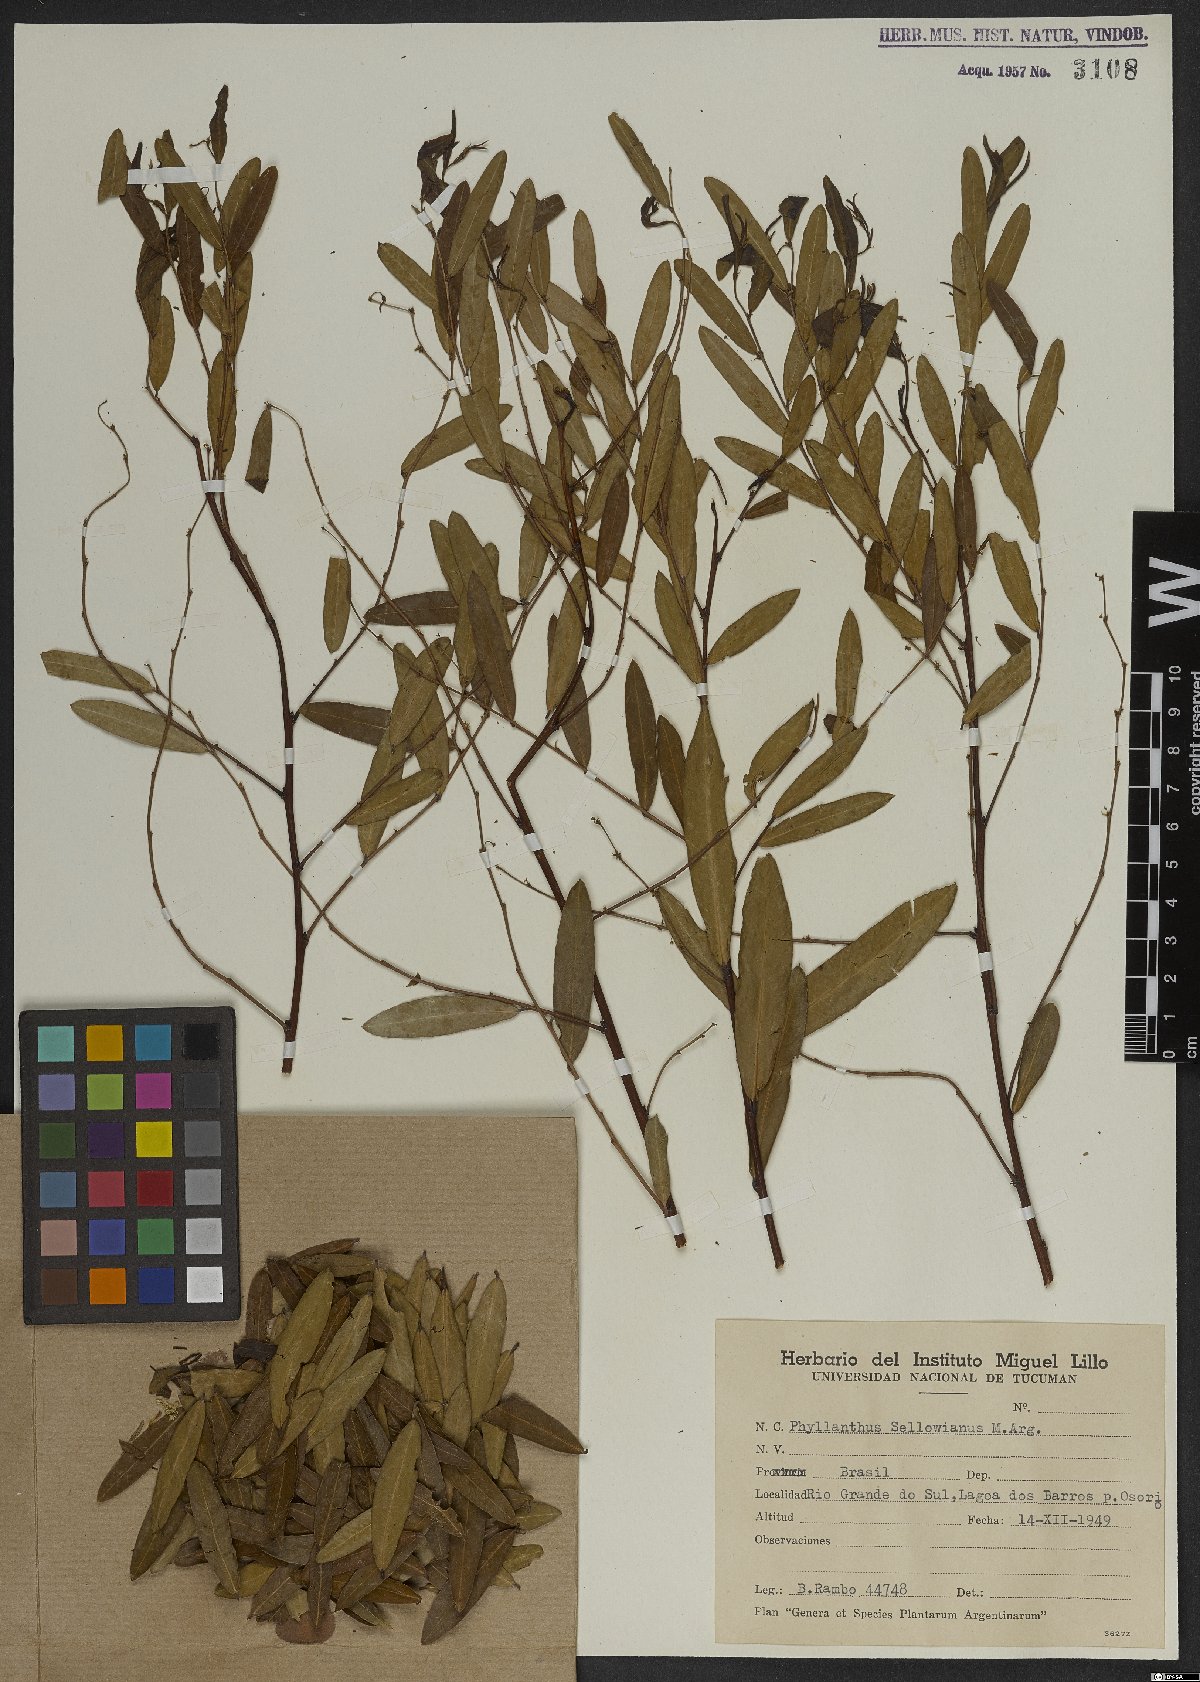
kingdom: Plantae
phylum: Tracheophyta
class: Magnoliopsida
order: Malpighiales
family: Phyllanthaceae
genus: Phyllanthus
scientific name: Phyllanthus sellowianus
